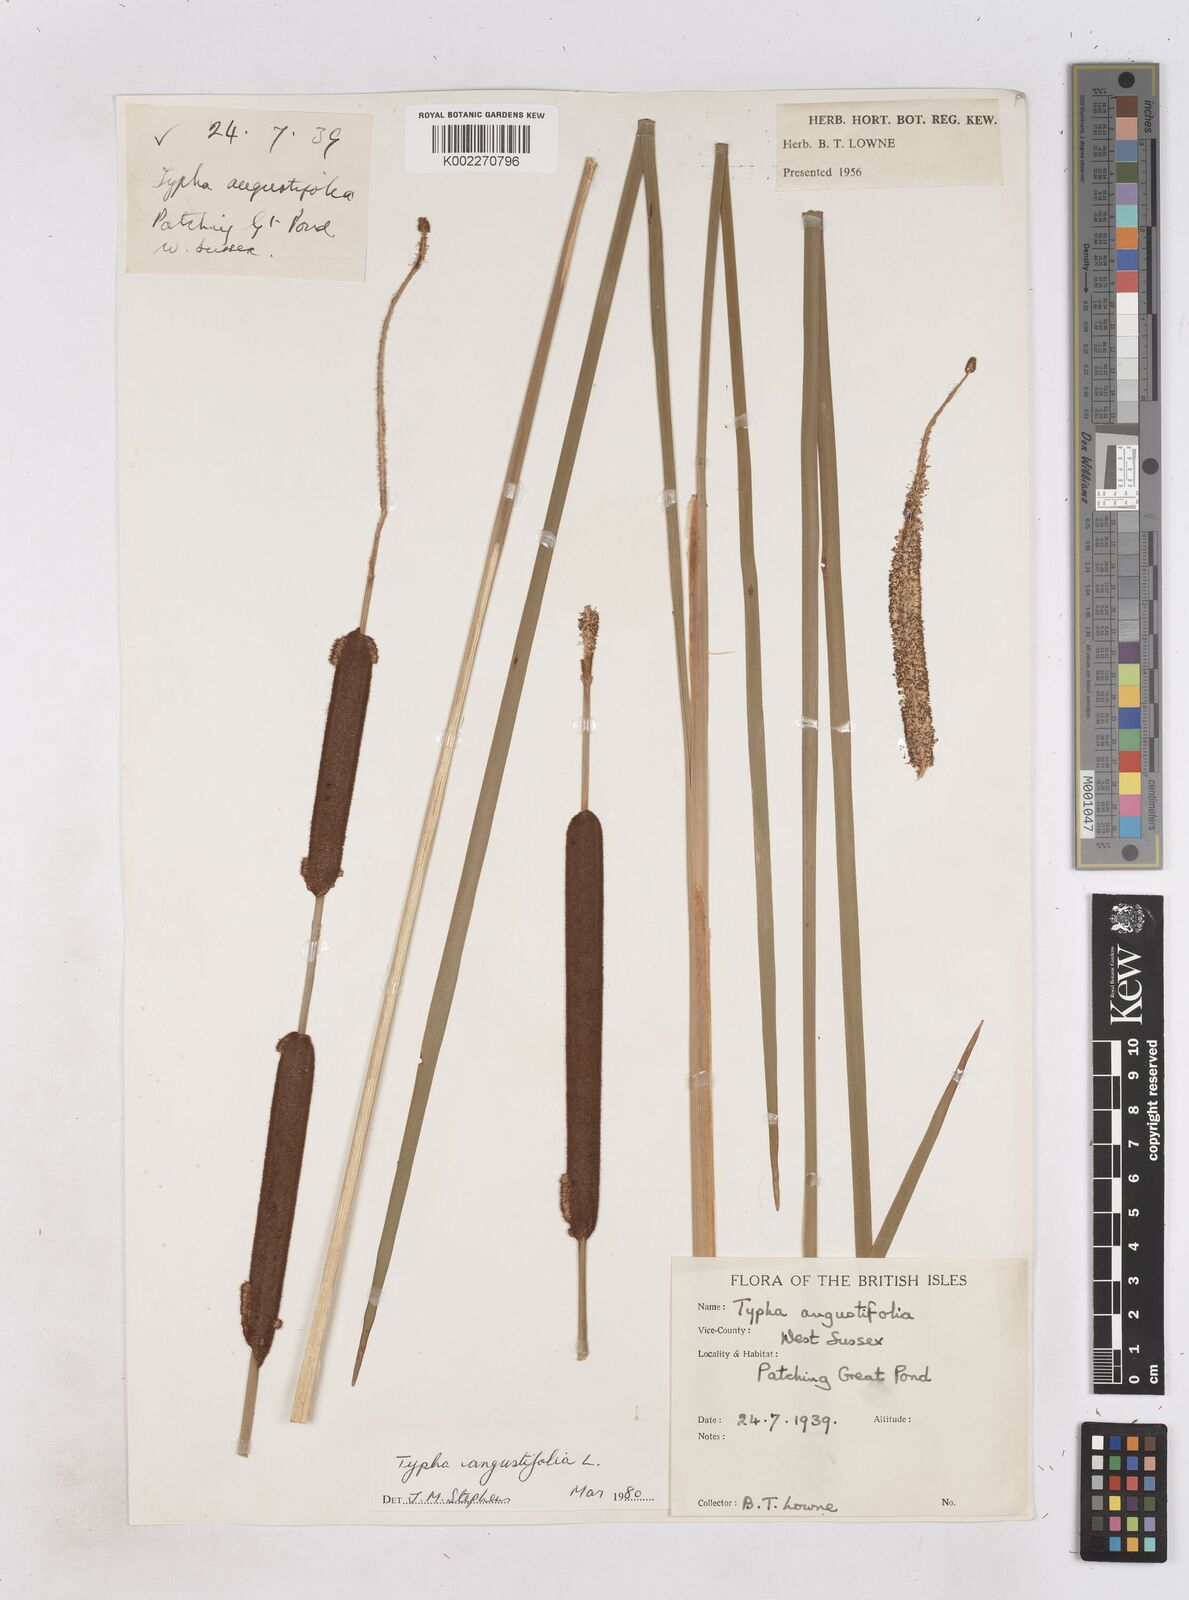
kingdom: Plantae
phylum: Tracheophyta
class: Liliopsida
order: Poales
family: Typhaceae
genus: Typha
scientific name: Typha angustifolia
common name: Lesser bulrush
